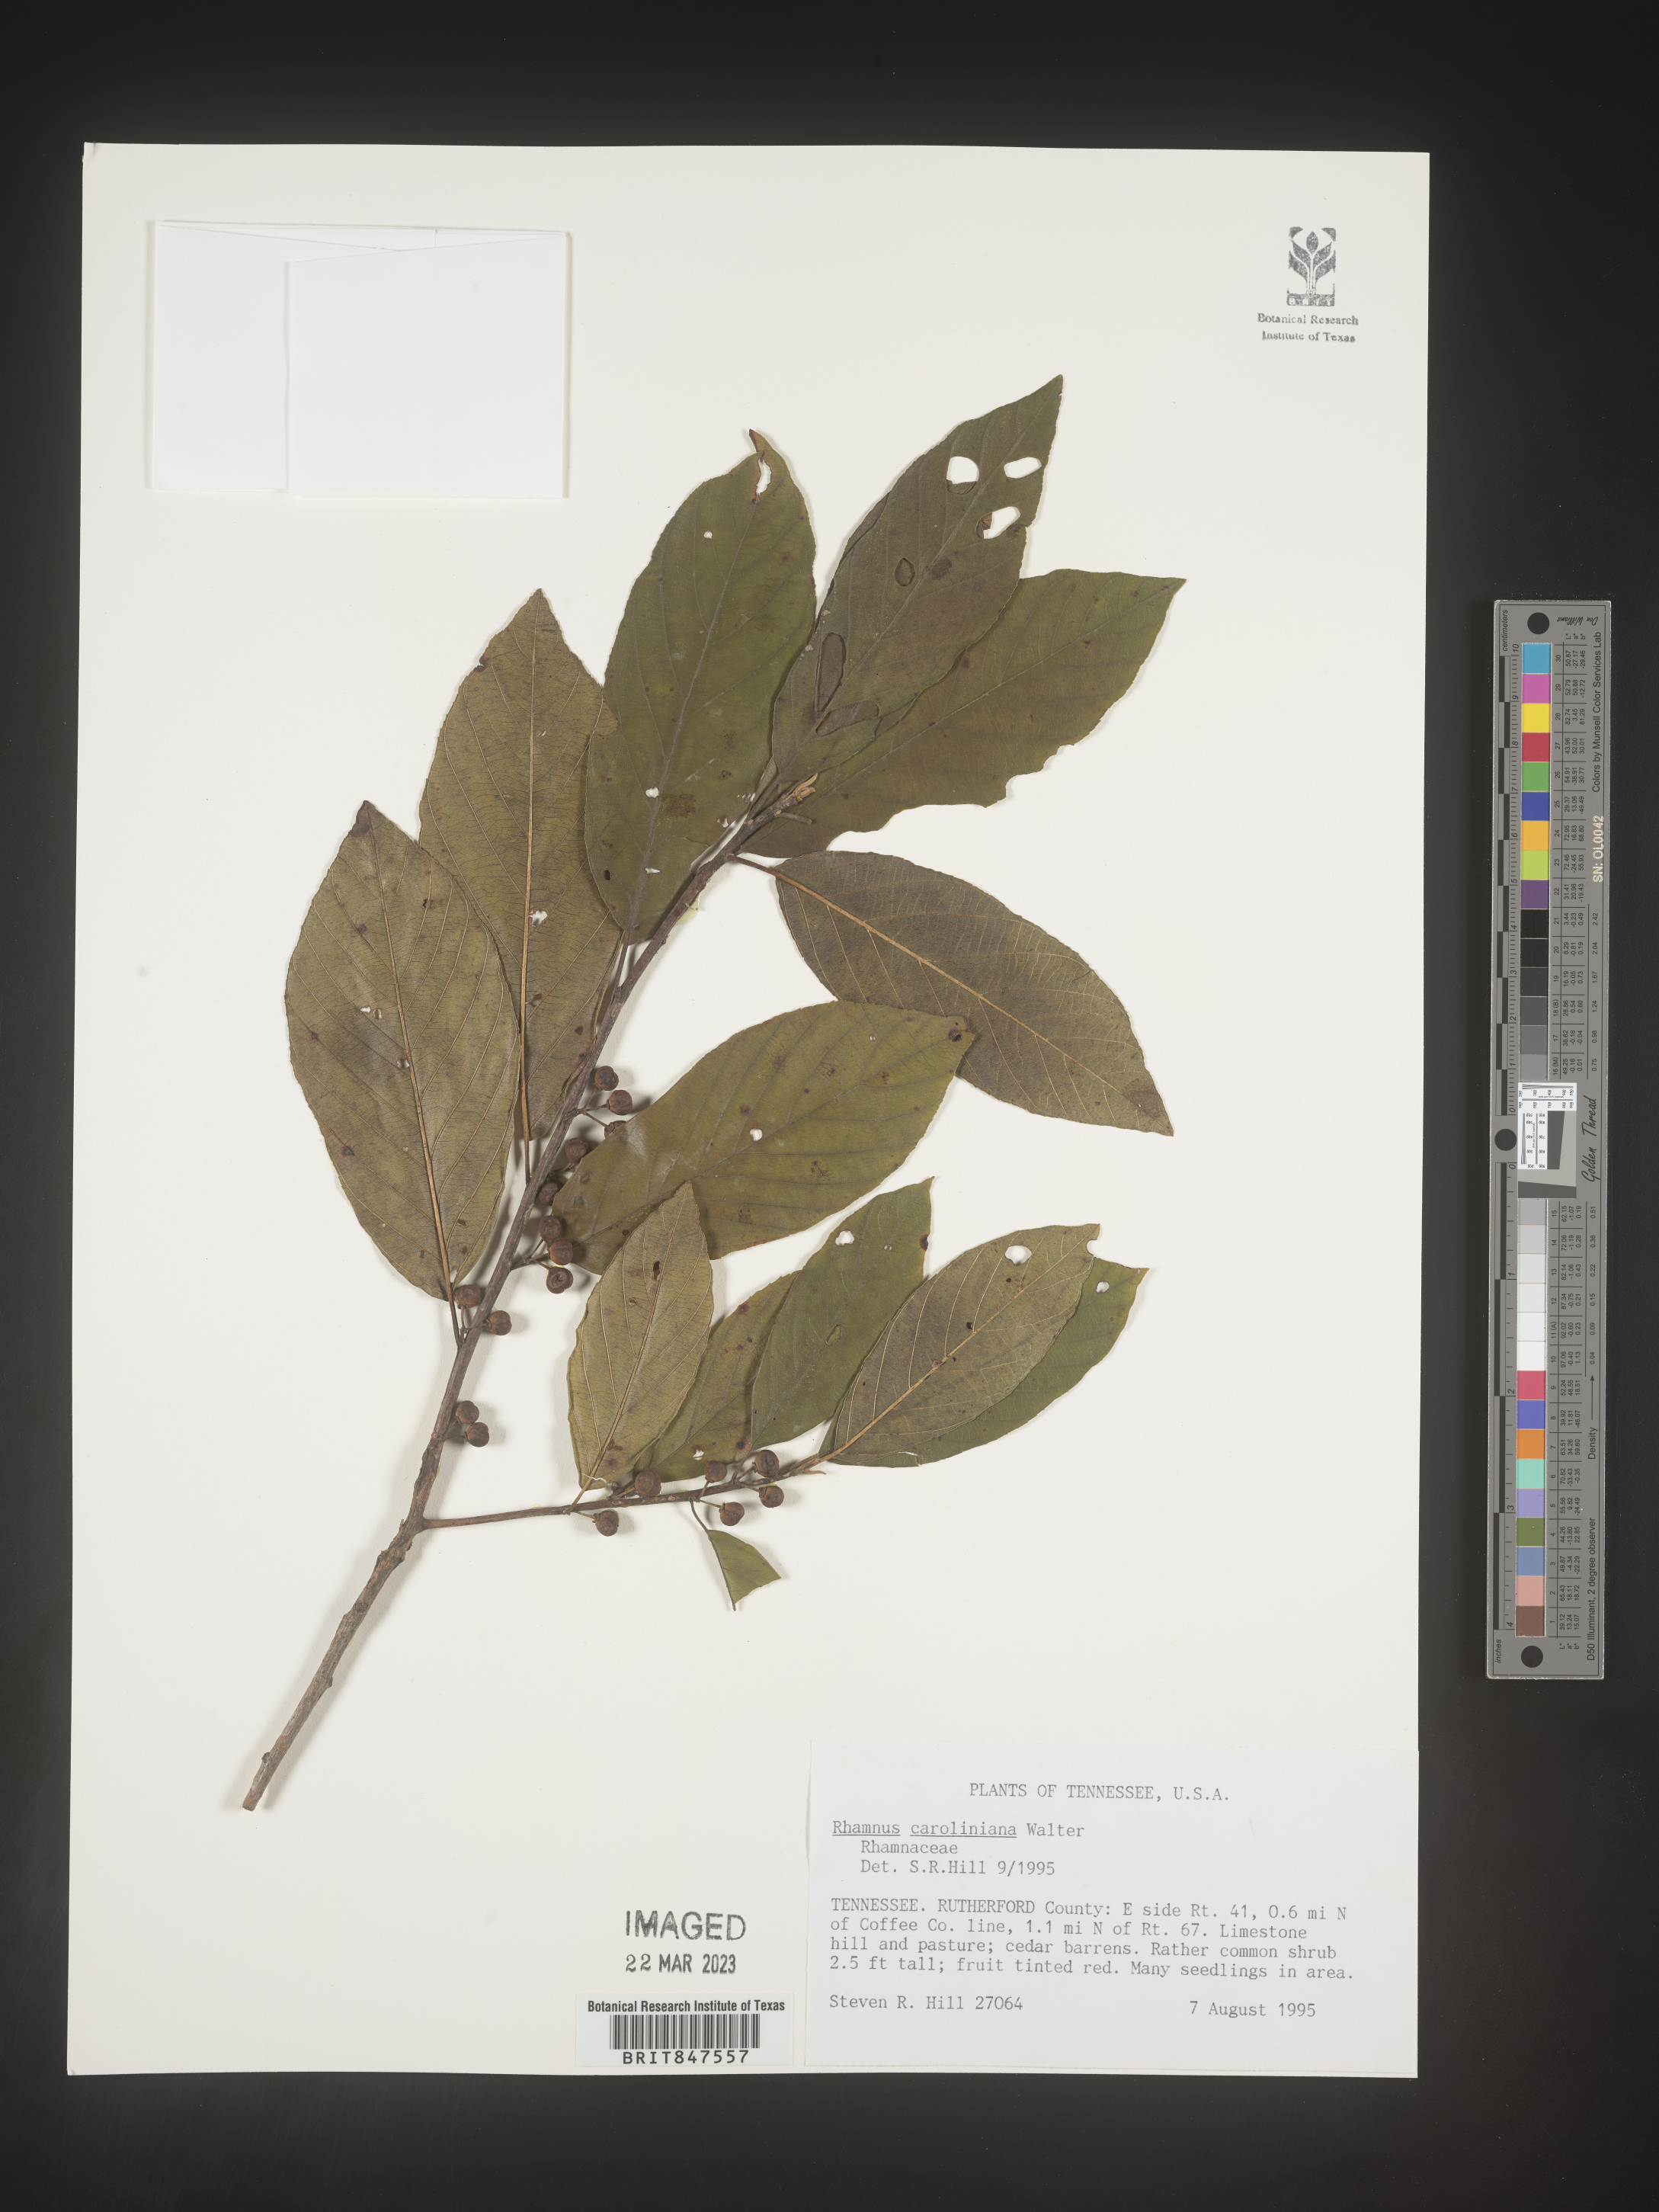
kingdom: Plantae
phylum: Tracheophyta
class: Magnoliopsida
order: Rosales
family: Rhamnaceae
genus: Frangula
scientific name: Frangula caroliniana
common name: Carolina buckthorn
